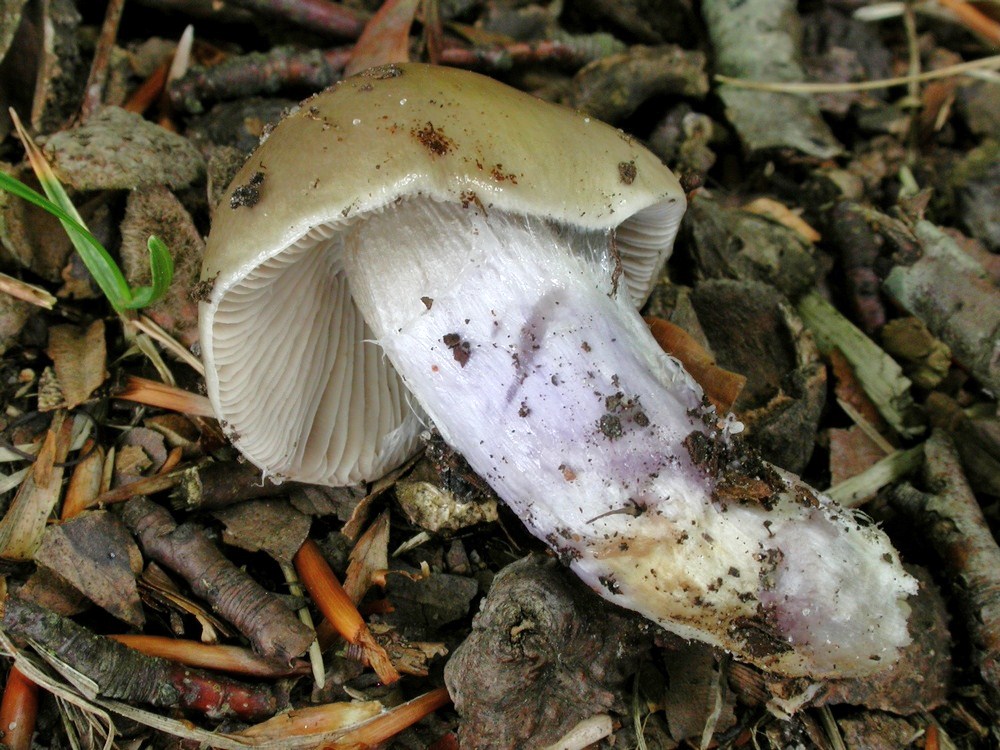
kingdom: Fungi
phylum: Basidiomycota
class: Agaricomycetes
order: Agaricales
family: Cortinariaceae
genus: Cortinarius
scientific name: Cortinarius livido-ochraceus
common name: halvhøj slørhat
